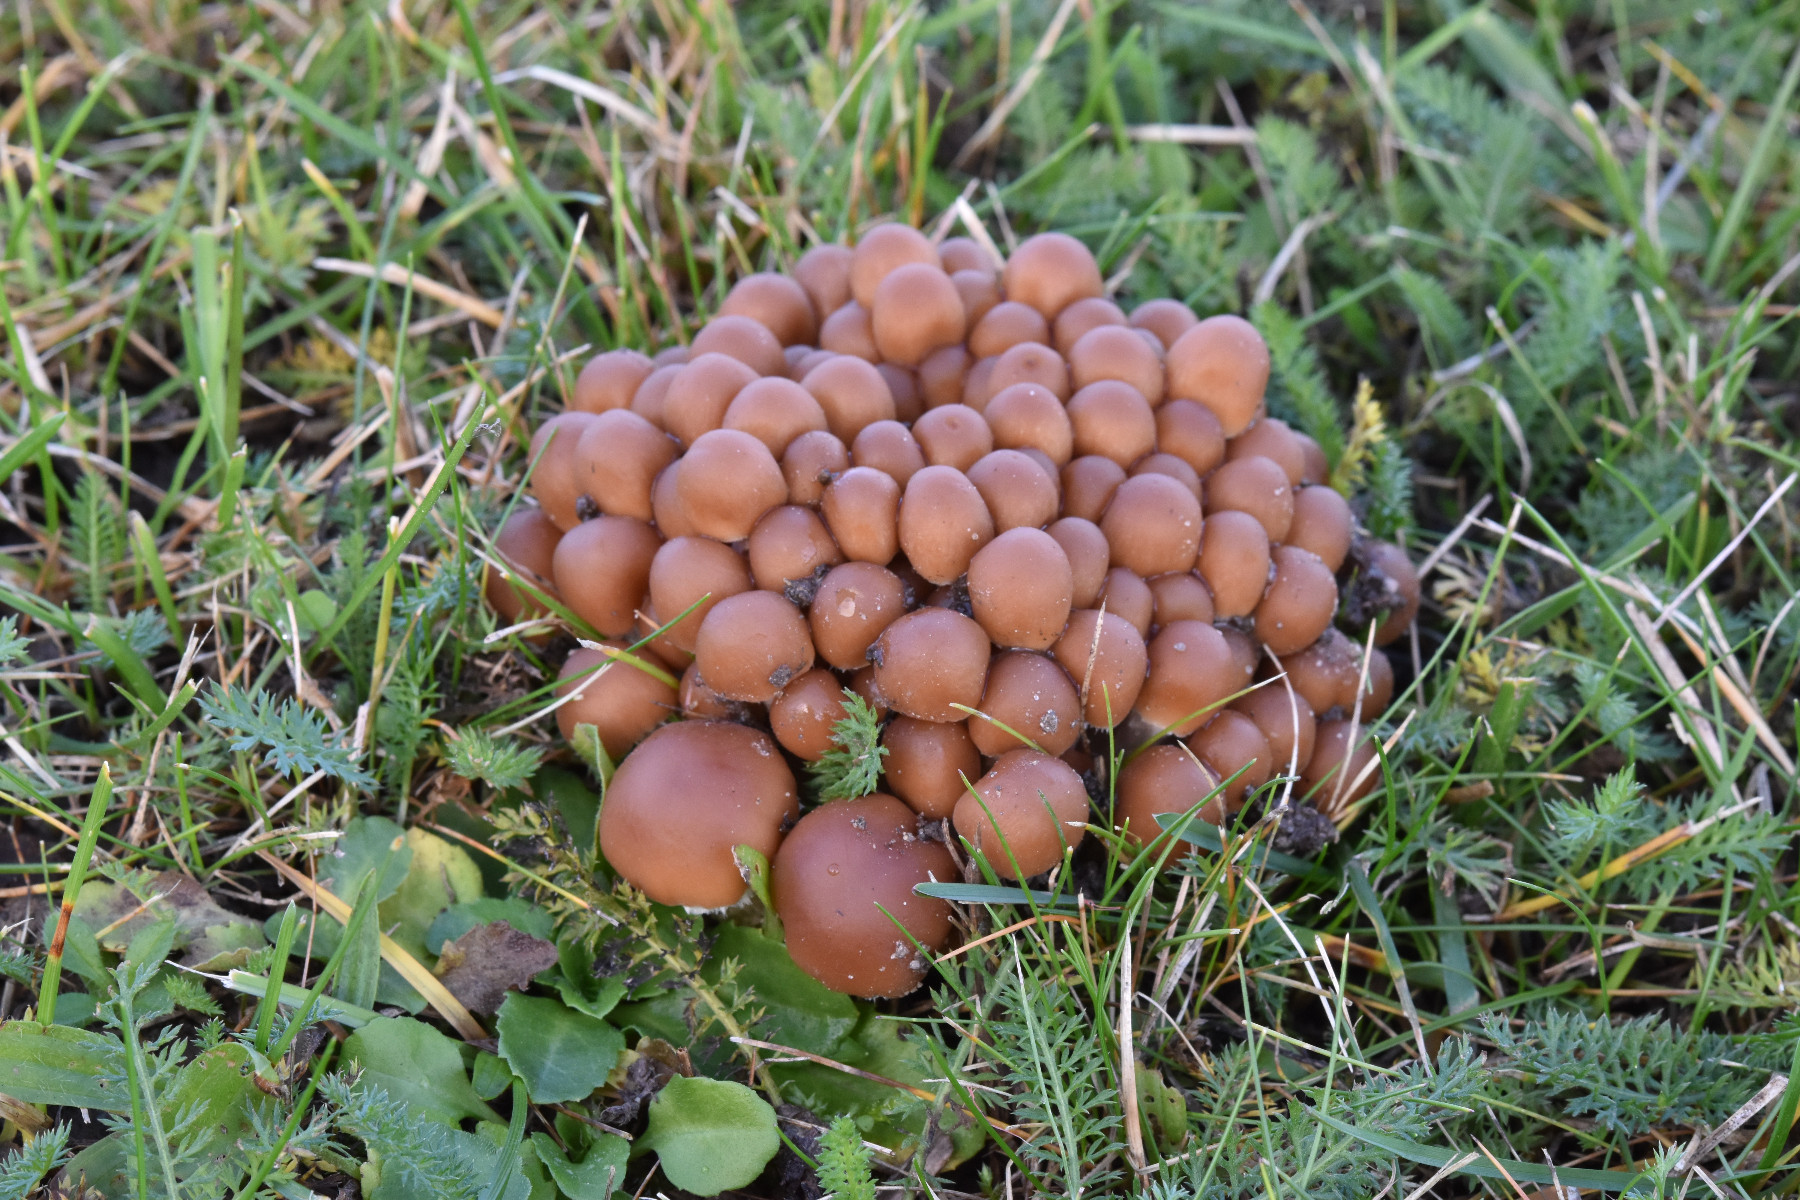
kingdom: Fungi
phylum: Basidiomycota
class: Agaricomycetes
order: Agaricales
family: Psathyrellaceae
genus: Britzelmayria
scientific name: Britzelmayria multipedata
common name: knippe-mørkhat
